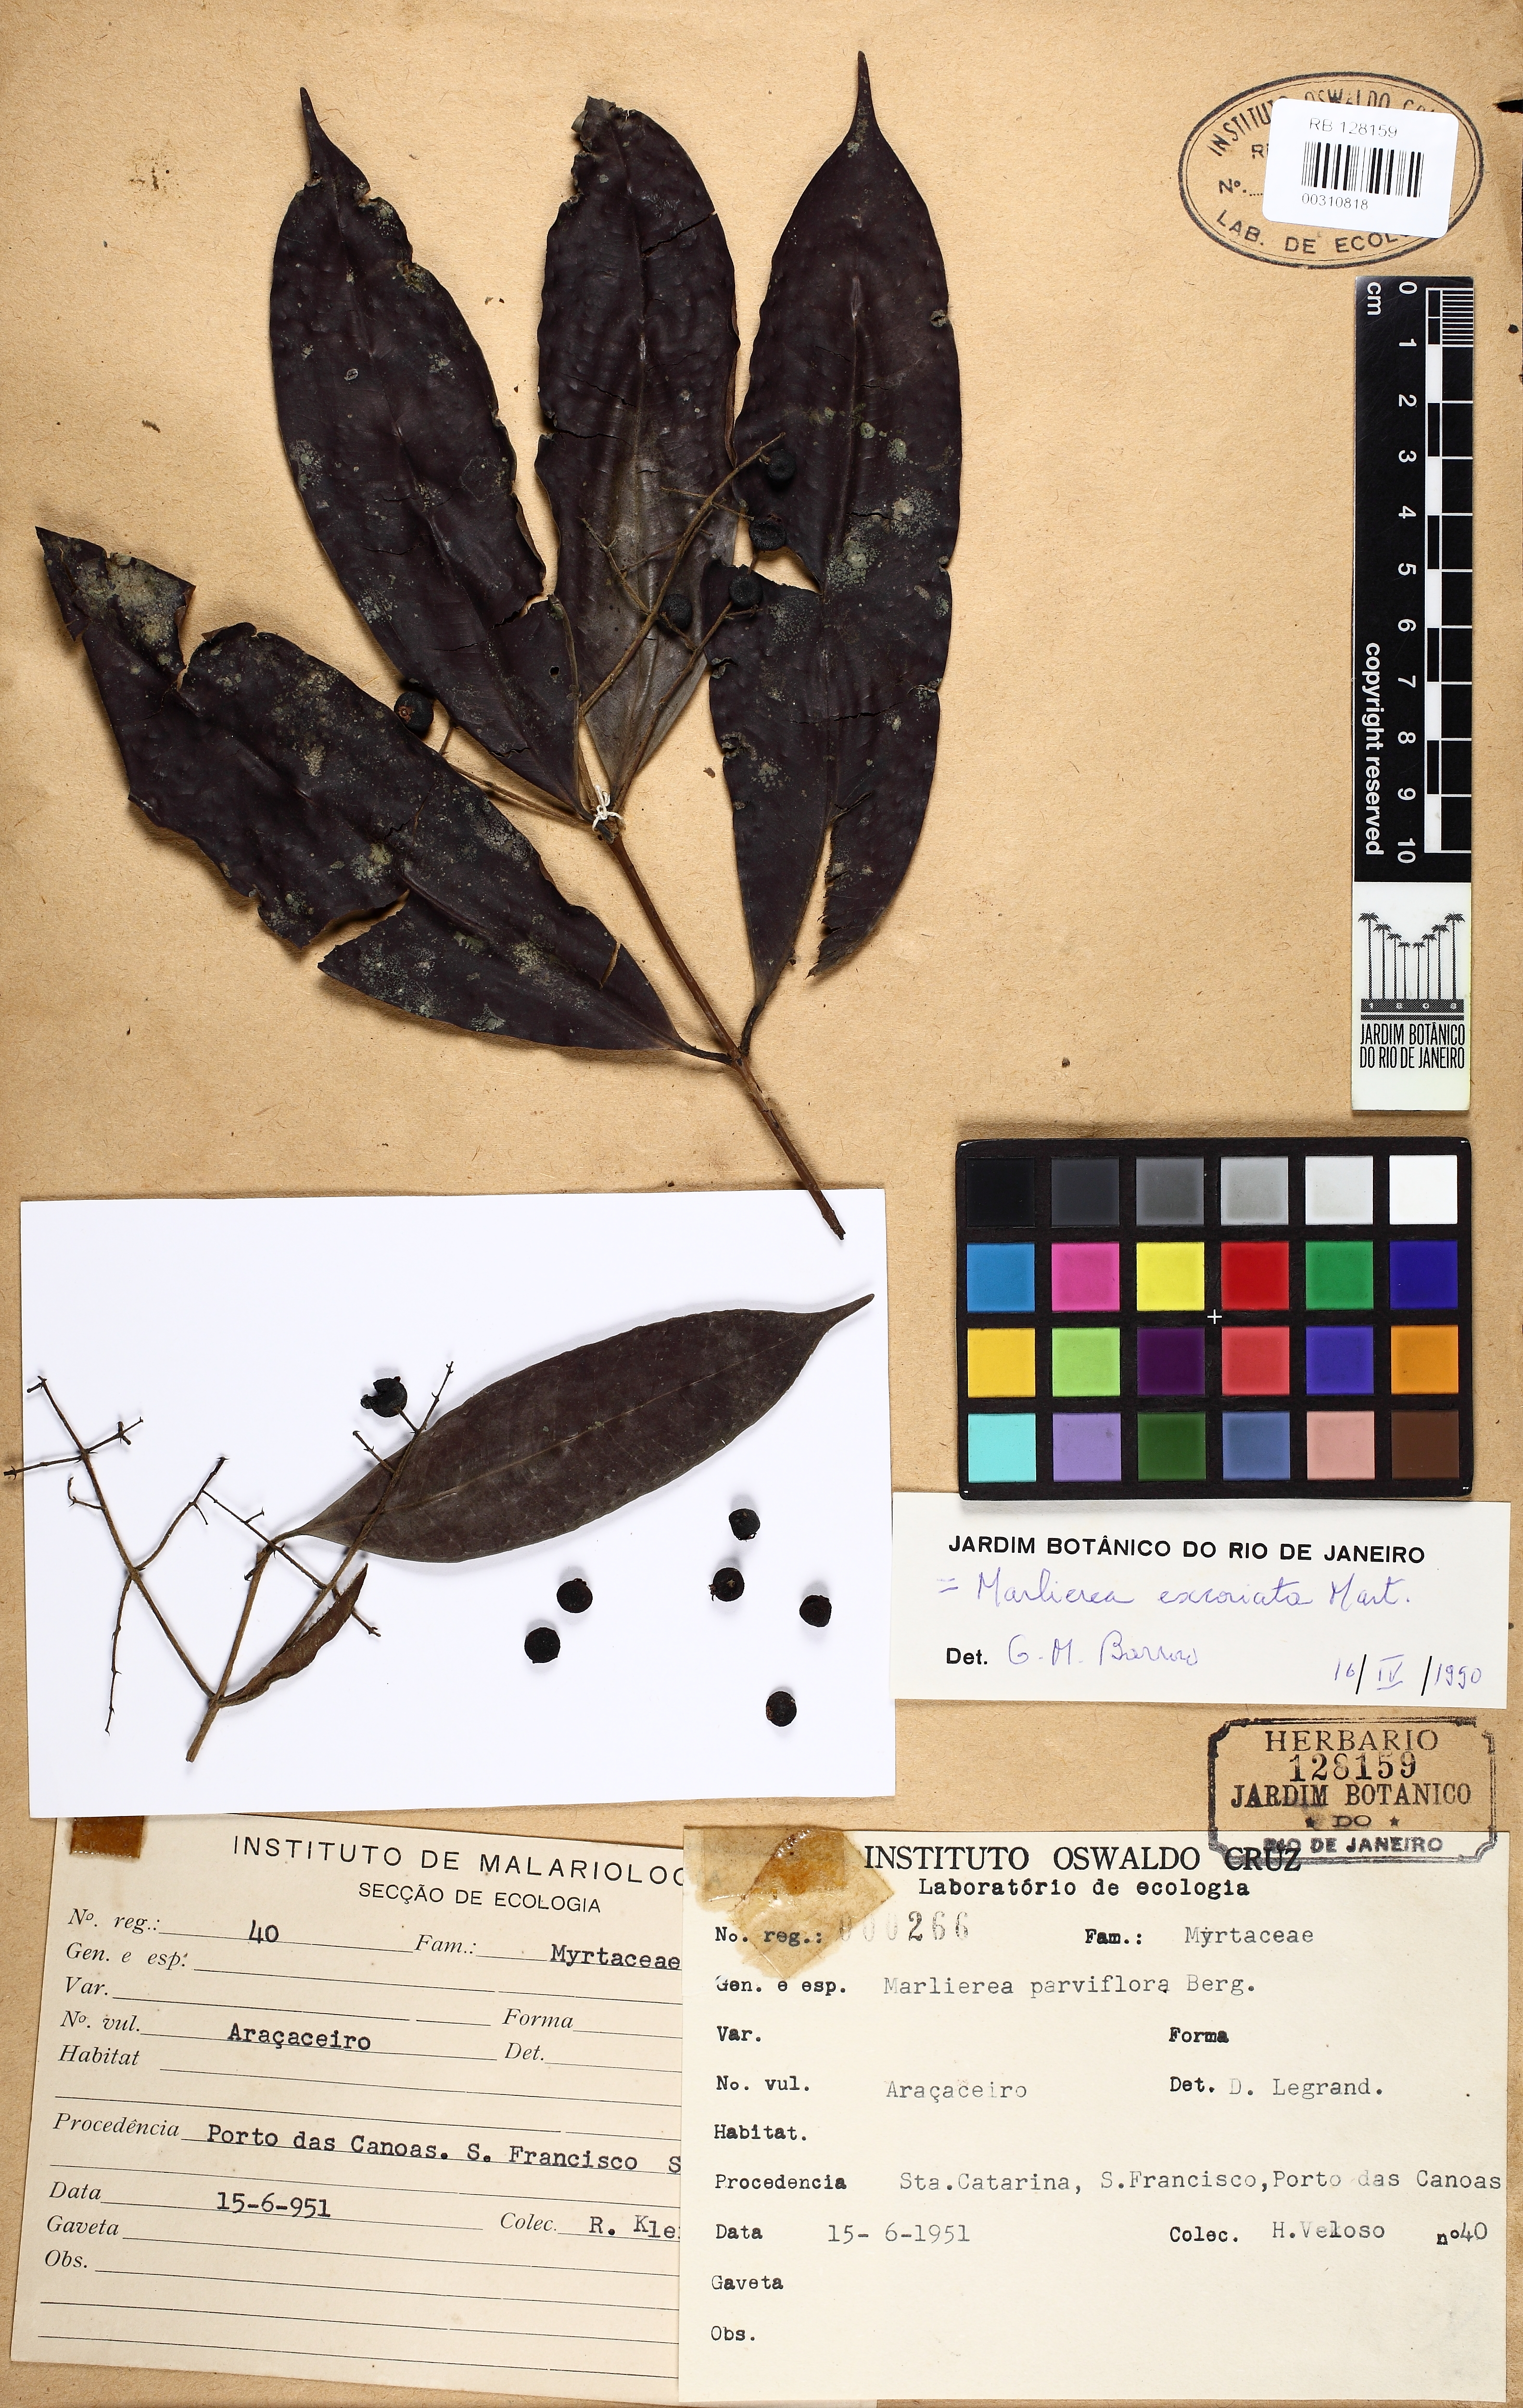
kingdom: Plantae
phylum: Tracheophyta
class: Magnoliopsida
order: Myrtales
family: Myrtaceae
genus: Myrcia
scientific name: Myrcia excoriata
